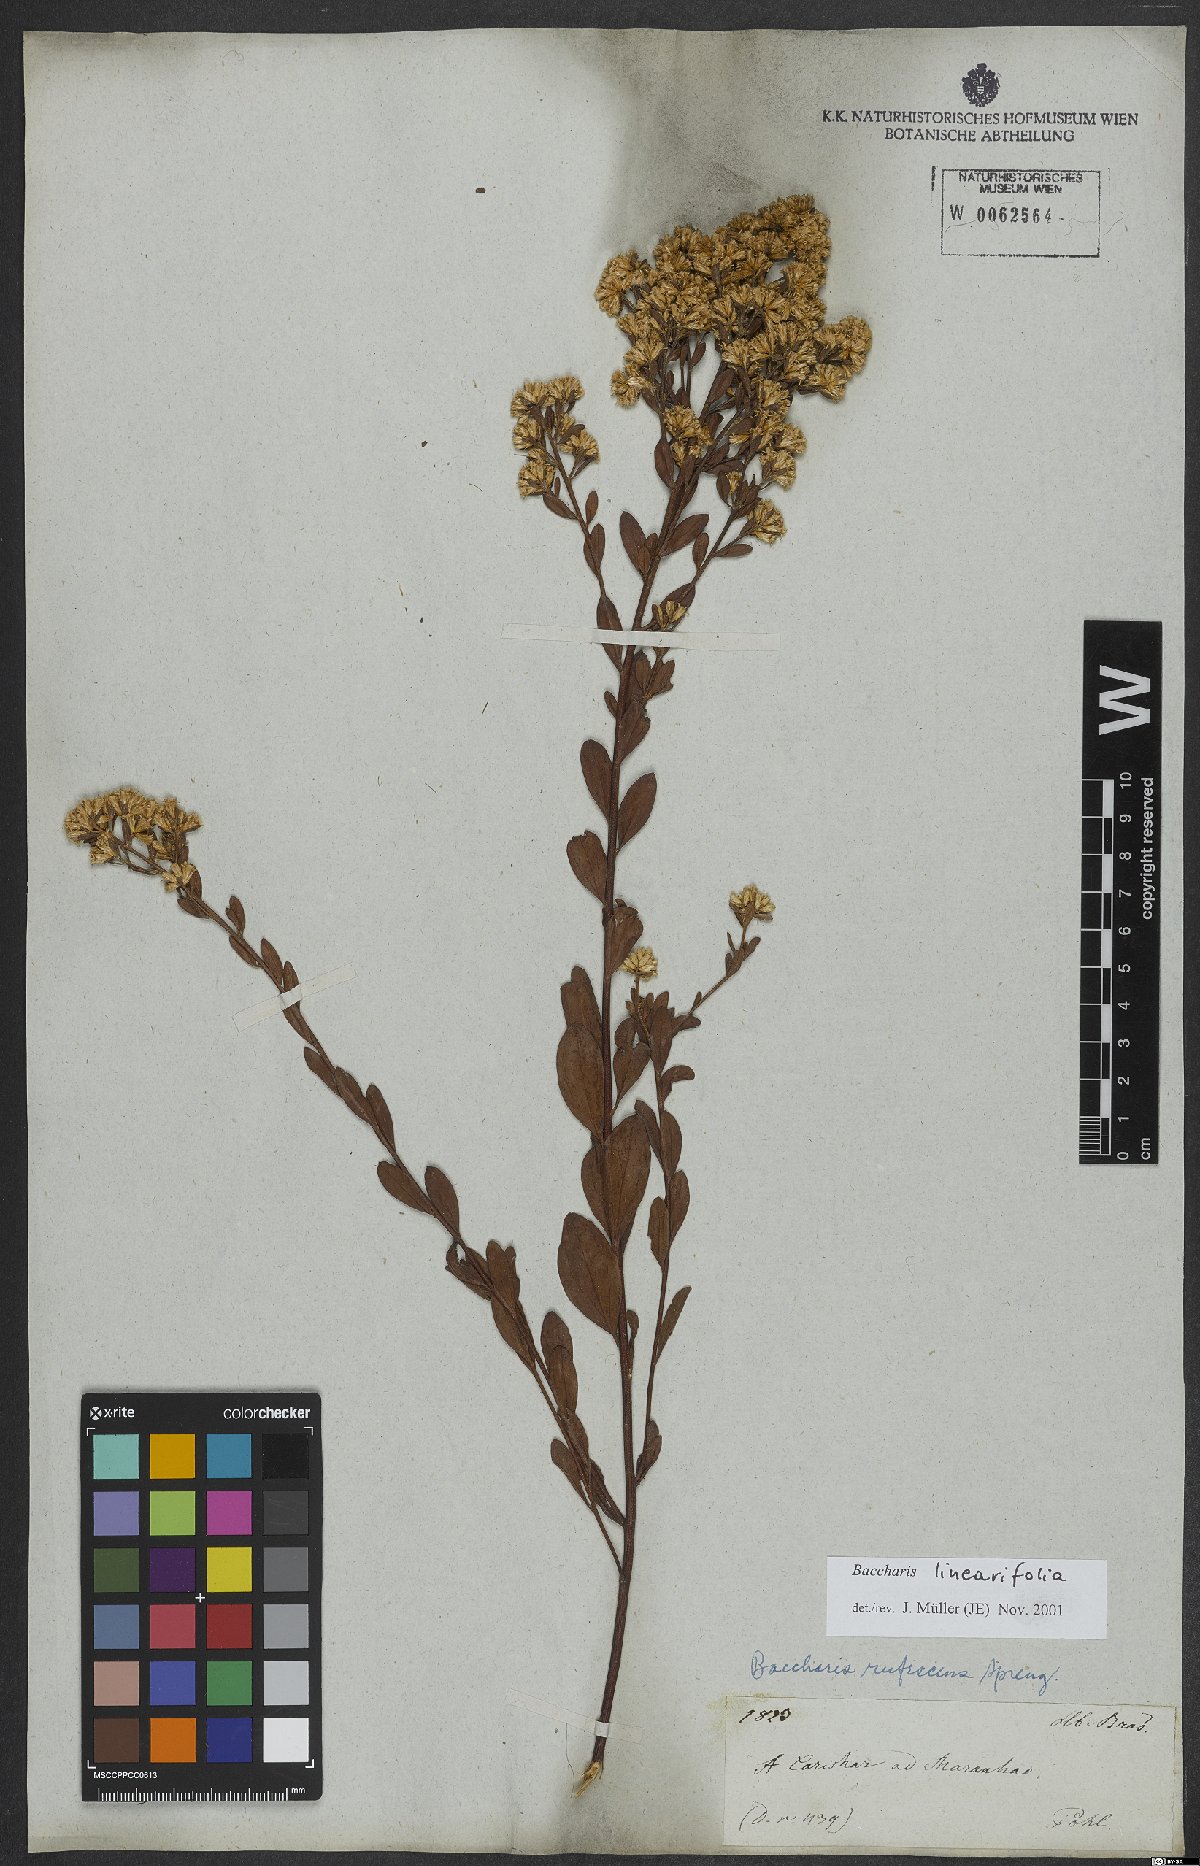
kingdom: Plantae
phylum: Tracheophyta
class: Magnoliopsida
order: Asterales
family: Asteraceae
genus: Baccharis
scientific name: Baccharis linearifolia
